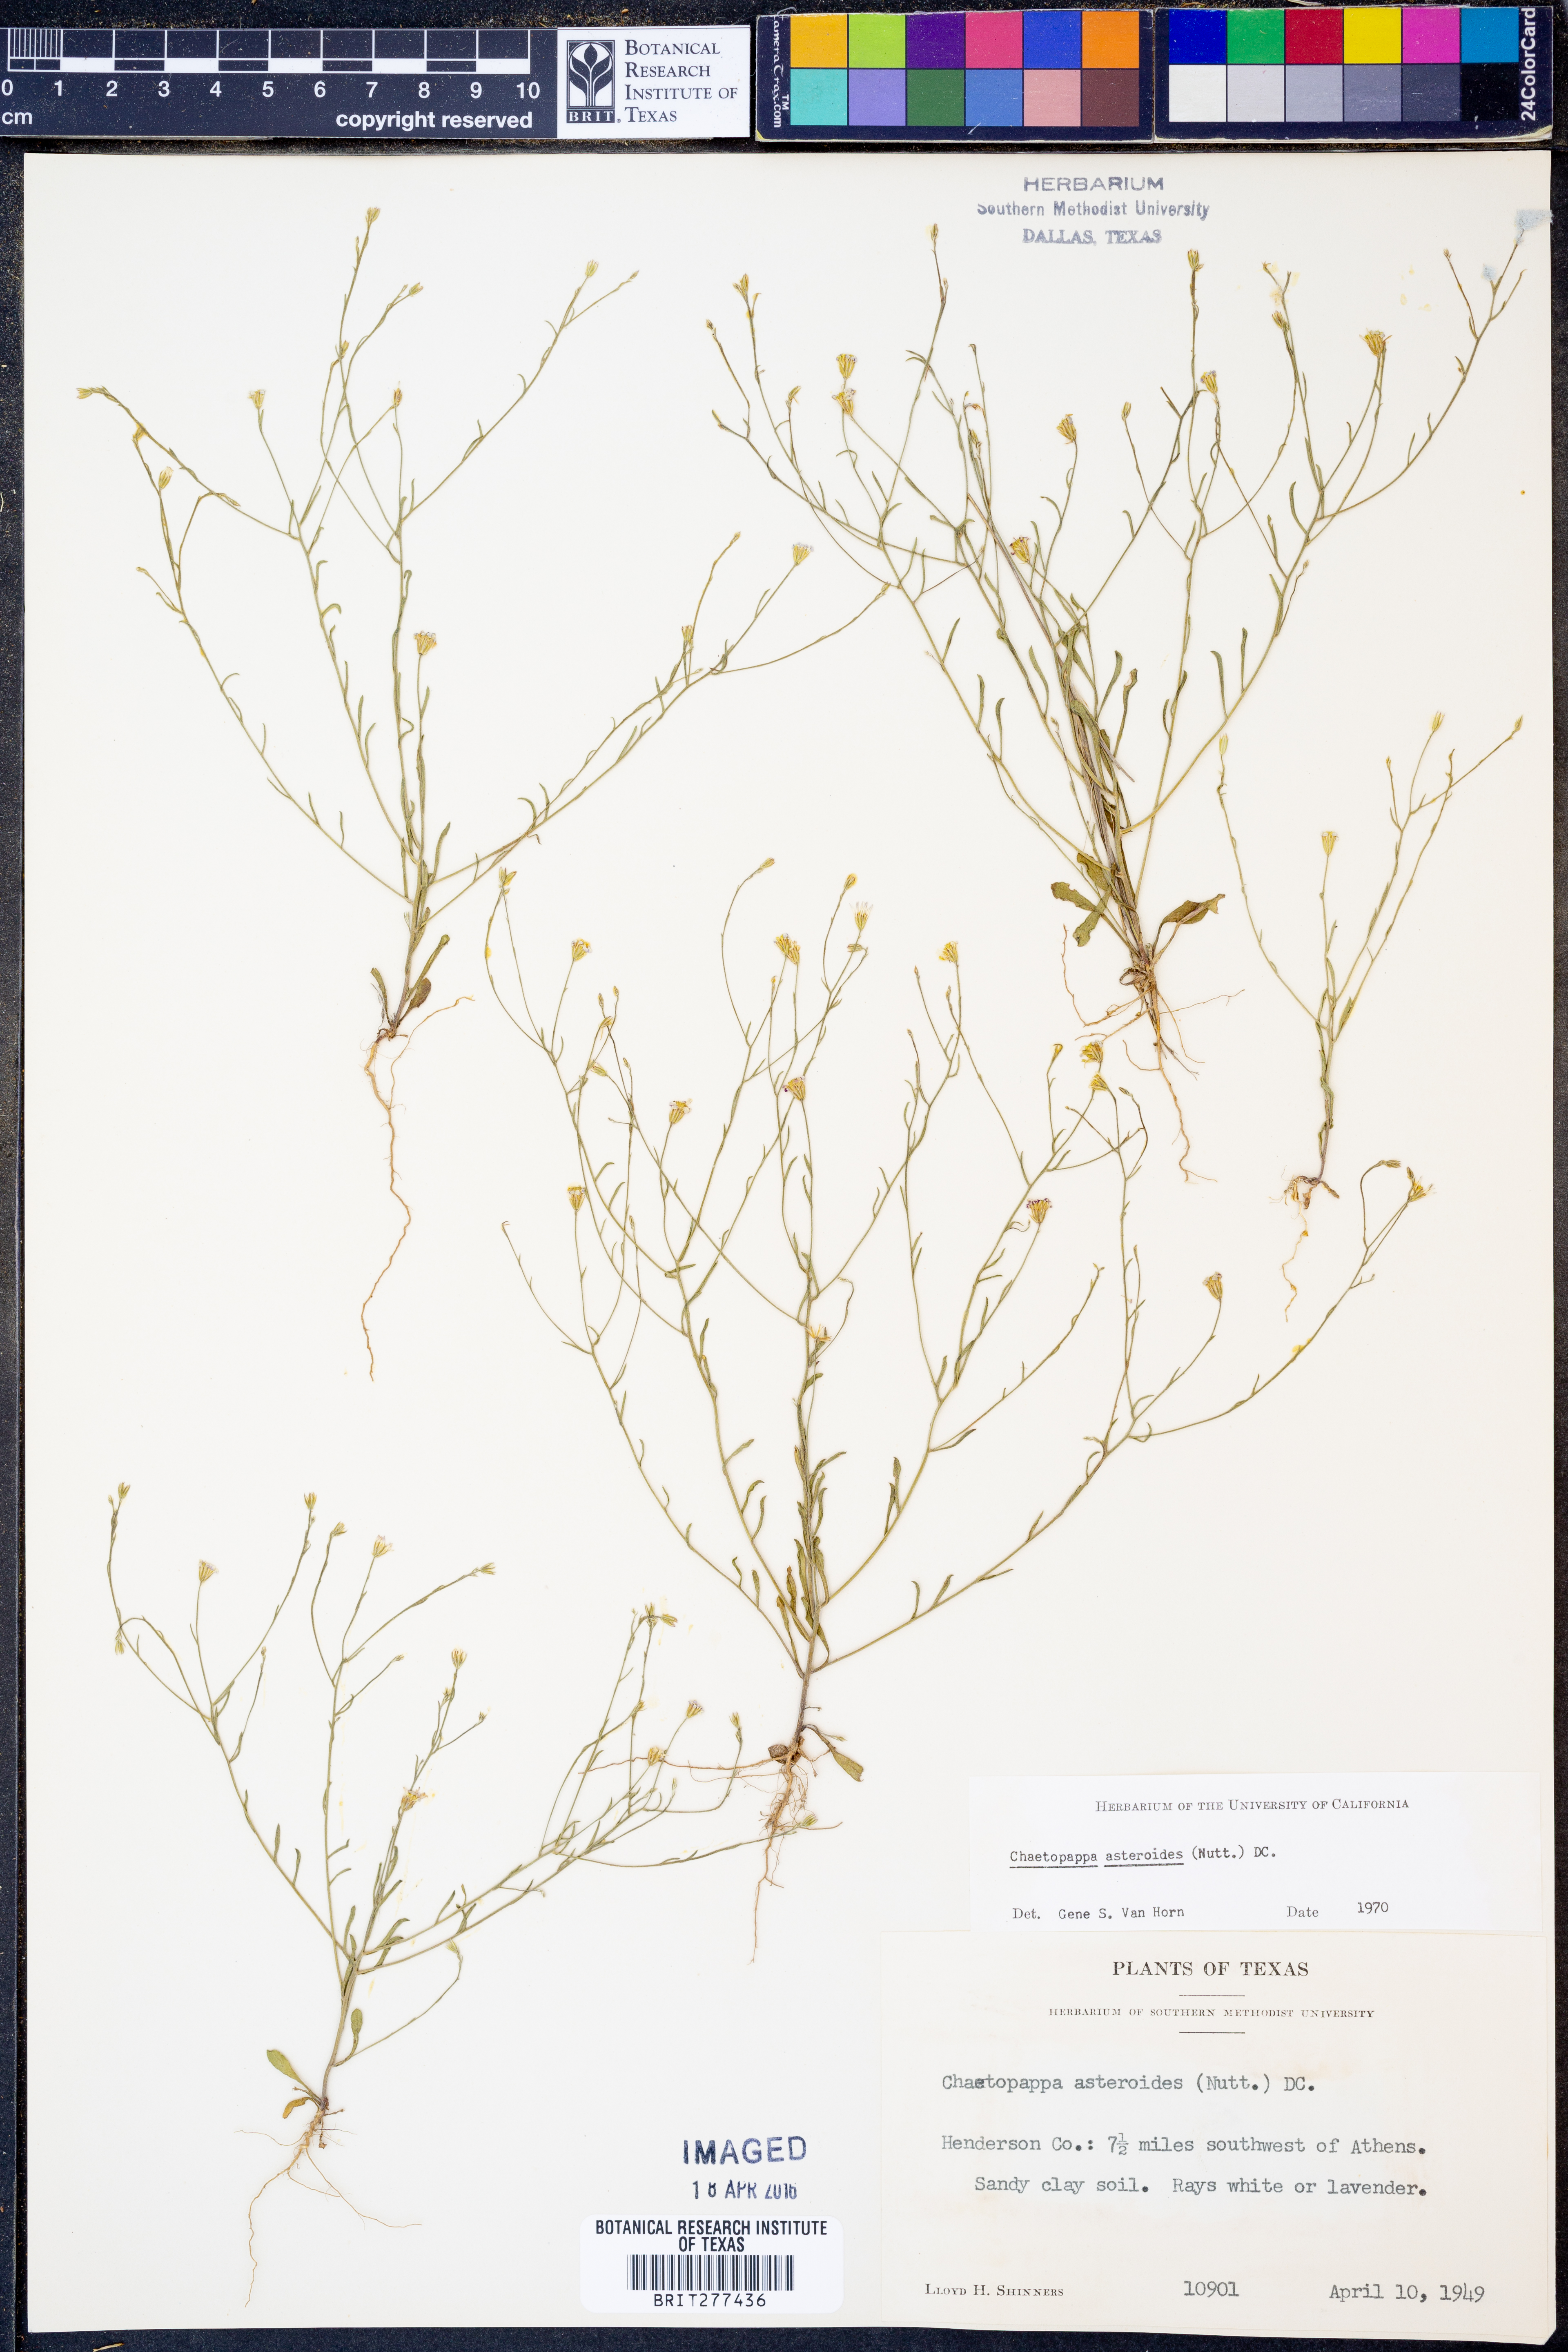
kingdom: Plantae
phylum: Tracheophyta
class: Magnoliopsida
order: Asterales
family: Asteraceae
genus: Chaetopappa
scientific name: Chaetopappa asteroides
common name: Tiny lazy daisy
